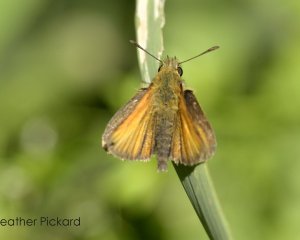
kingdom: Animalia
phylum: Arthropoda
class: Insecta
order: Lepidoptera
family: Hesperiidae
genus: Ancyloxypha
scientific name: Ancyloxypha numitor
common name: Least Skipper
